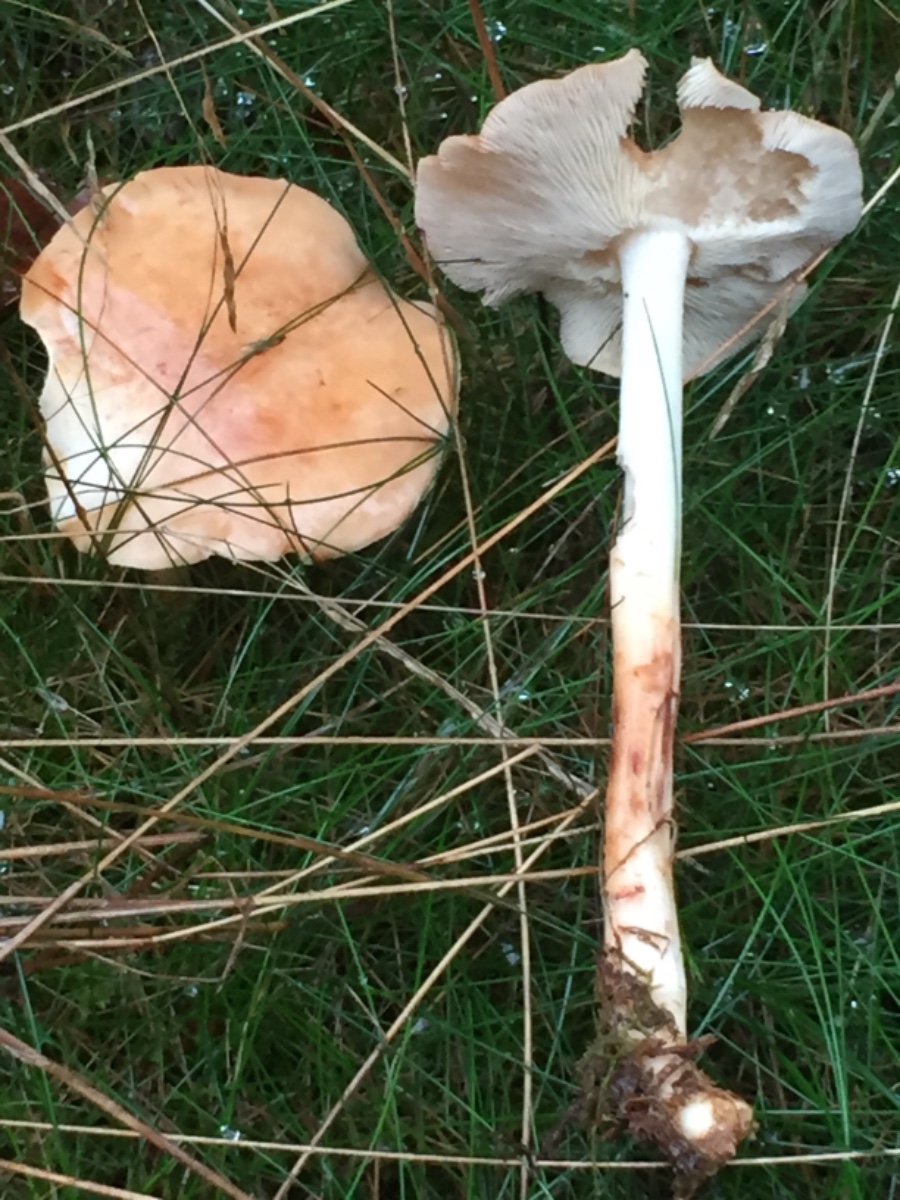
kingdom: Fungi
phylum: Basidiomycota
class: Agaricomycetes
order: Agaricales
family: Omphalotaceae
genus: Rhodocollybia
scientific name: Rhodocollybia maculata
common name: plettet fladhat
